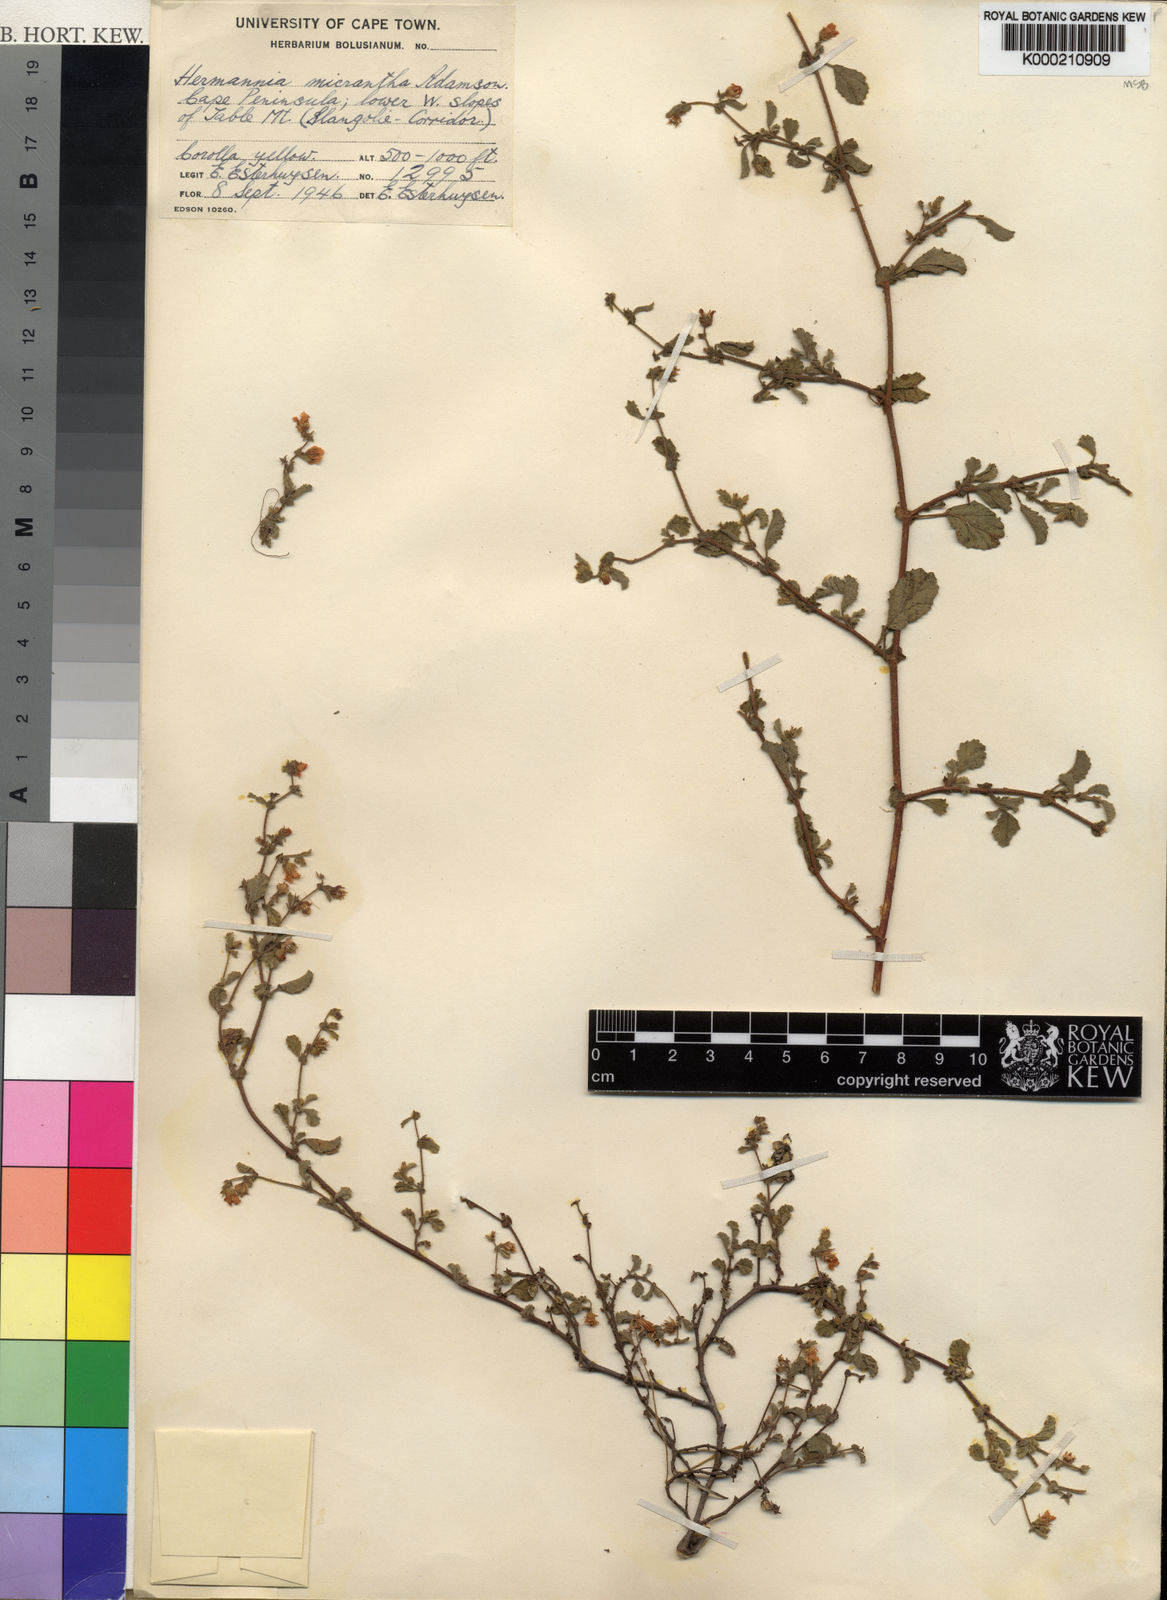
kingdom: Plantae
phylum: Tracheophyta
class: Magnoliopsida
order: Malvales
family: Malvaceae
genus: Hermannia
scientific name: Hermannia micrantha
